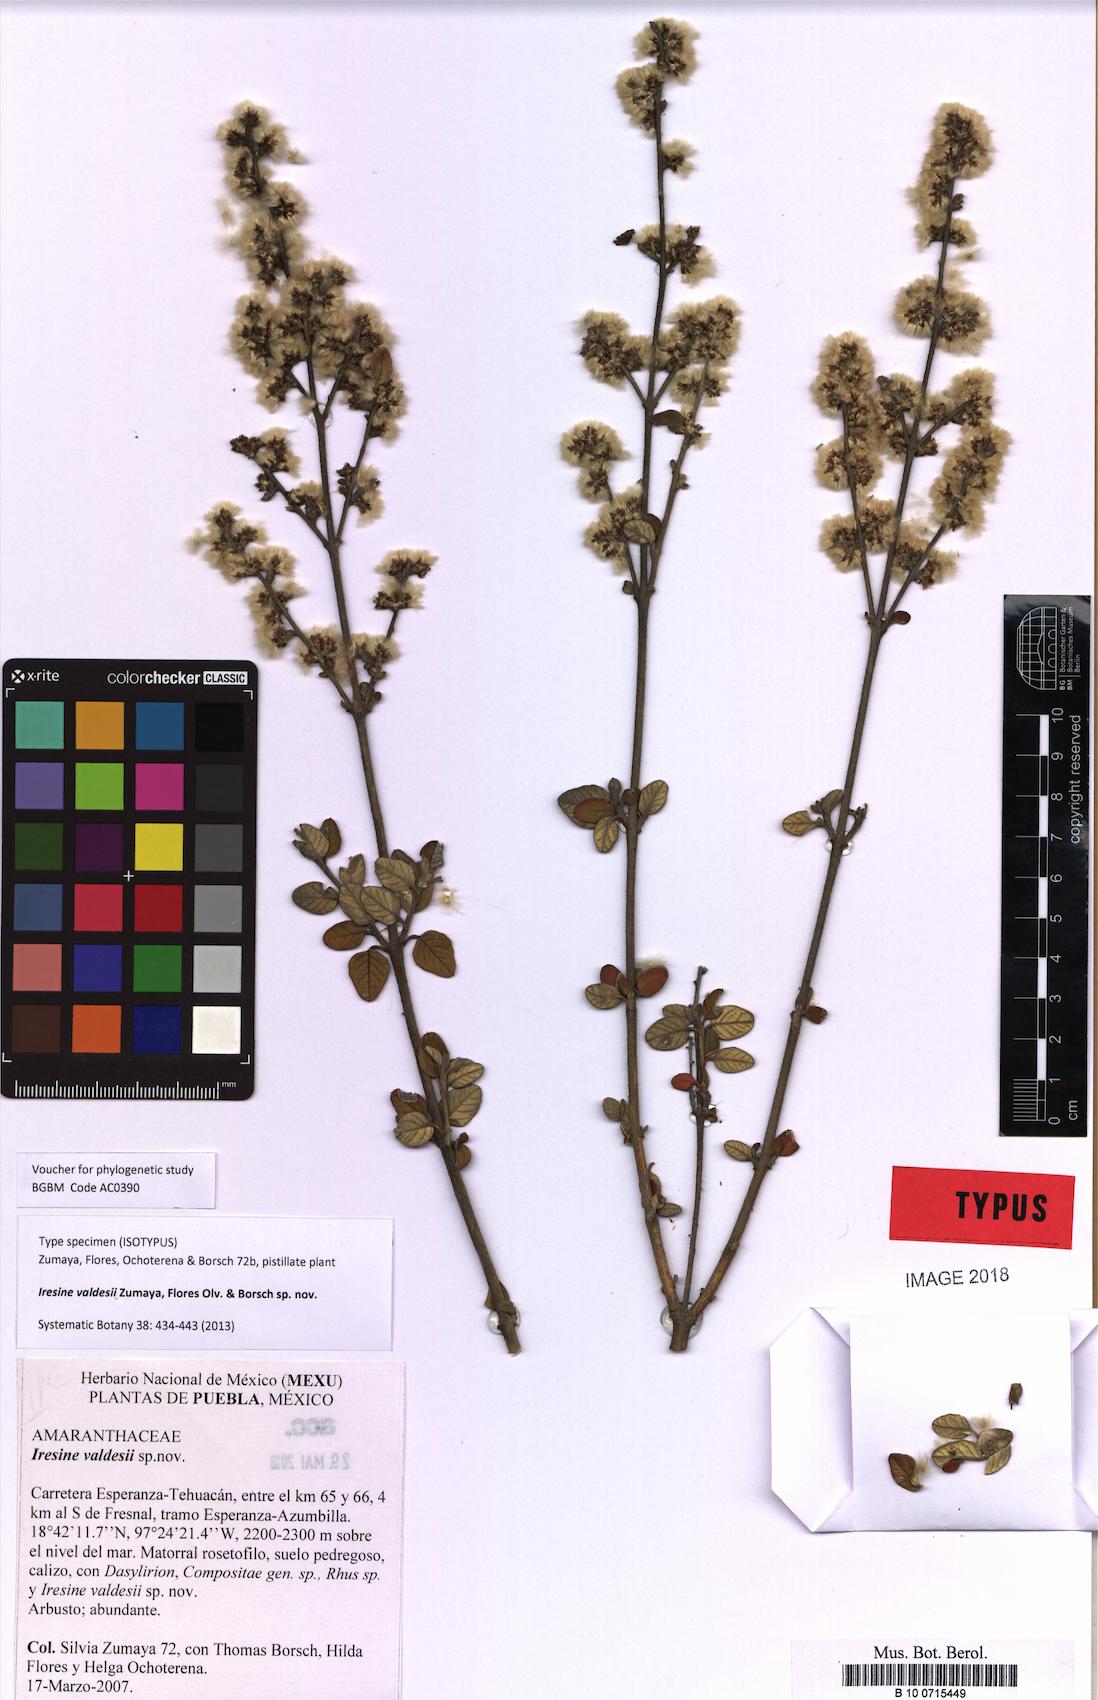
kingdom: Plantae
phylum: Tracheophyta
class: Magnoliopsida
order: Caryophyllales
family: Amaranthaceae
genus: Iresine
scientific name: Iresine valdesii
